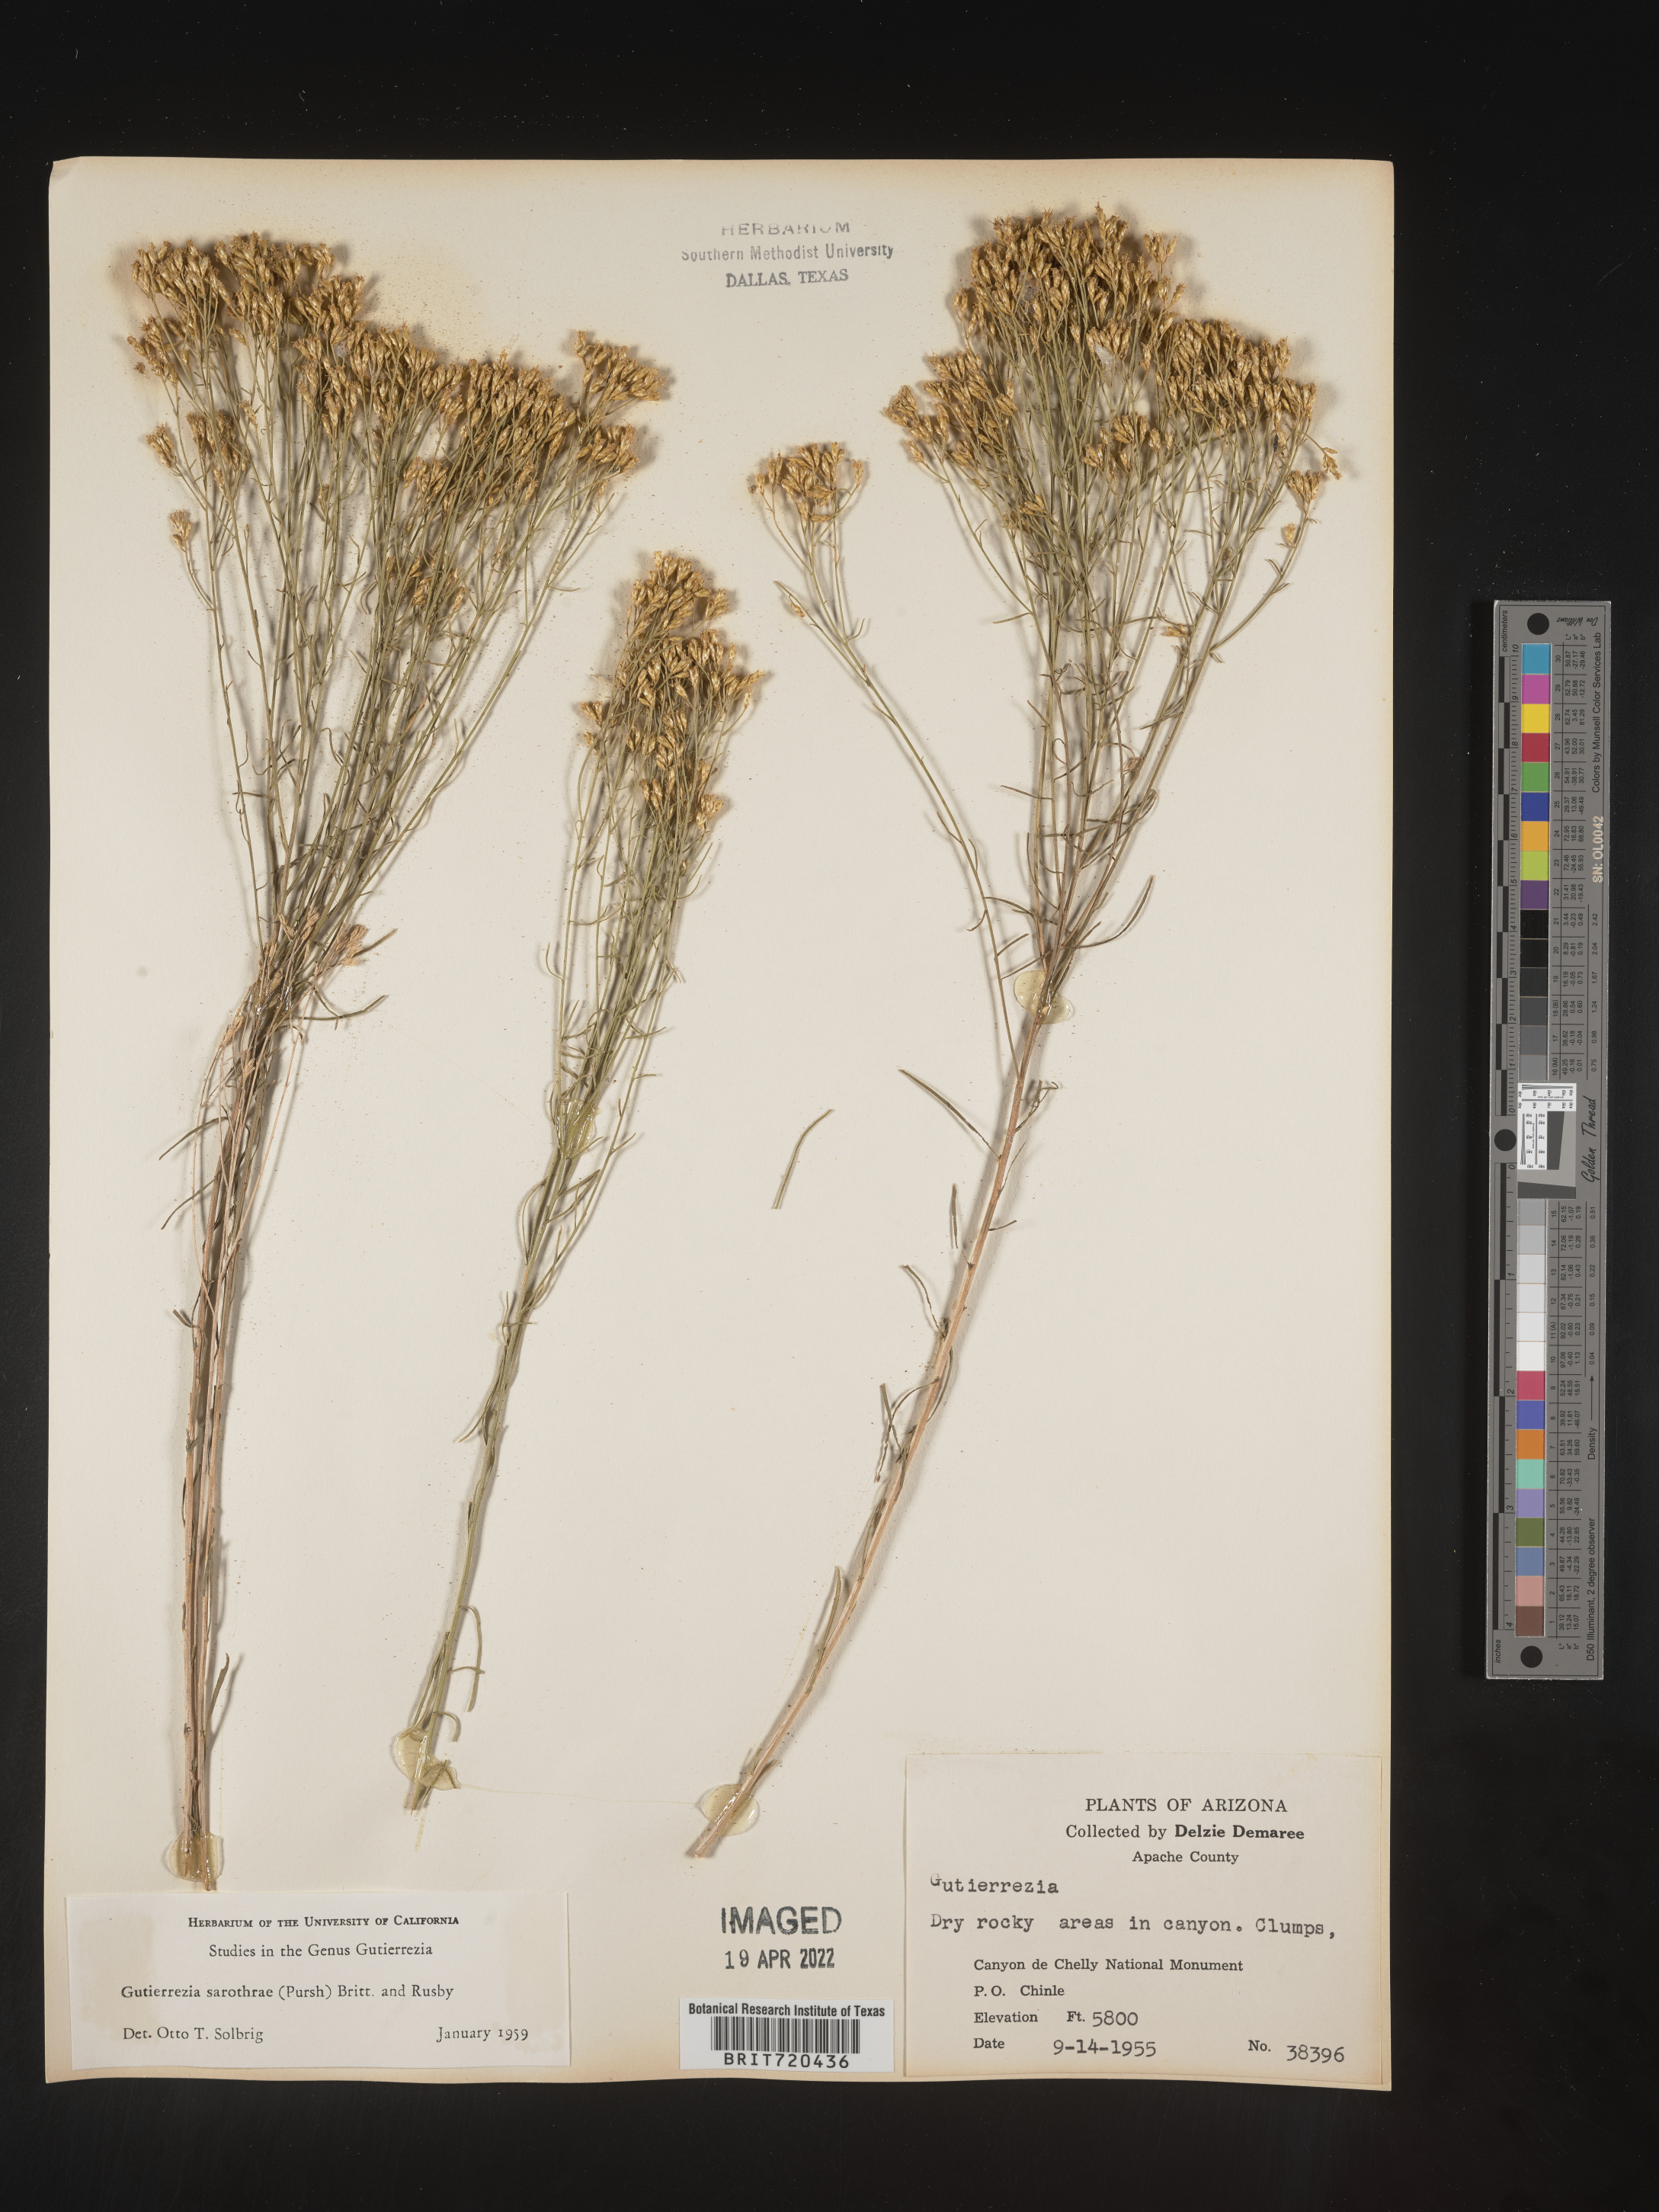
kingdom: Plantae
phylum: Tracheophyta
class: Magnoliopsida
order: Asterales
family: Asteraceae
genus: Gutierrezia
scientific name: Gutierrezia sarothrae
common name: Broom snakeweed
